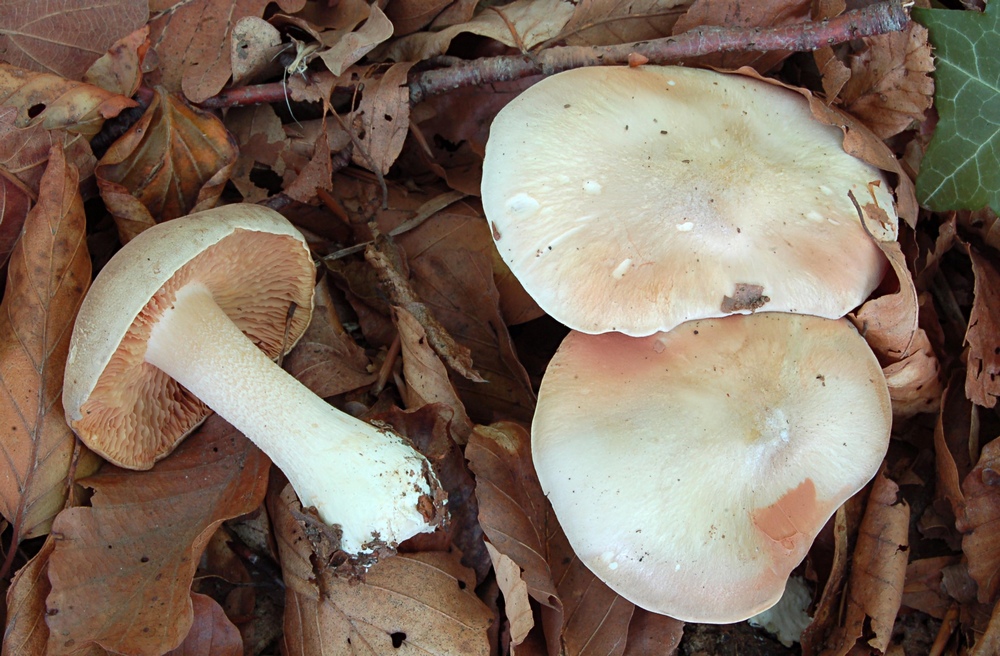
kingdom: Fungi
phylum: Basidiomycota
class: Agaricomycetes
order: Agaricales
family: Entolomataceae
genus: Entoloma
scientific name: Entoloma sinuatum
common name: giftig rødblad
